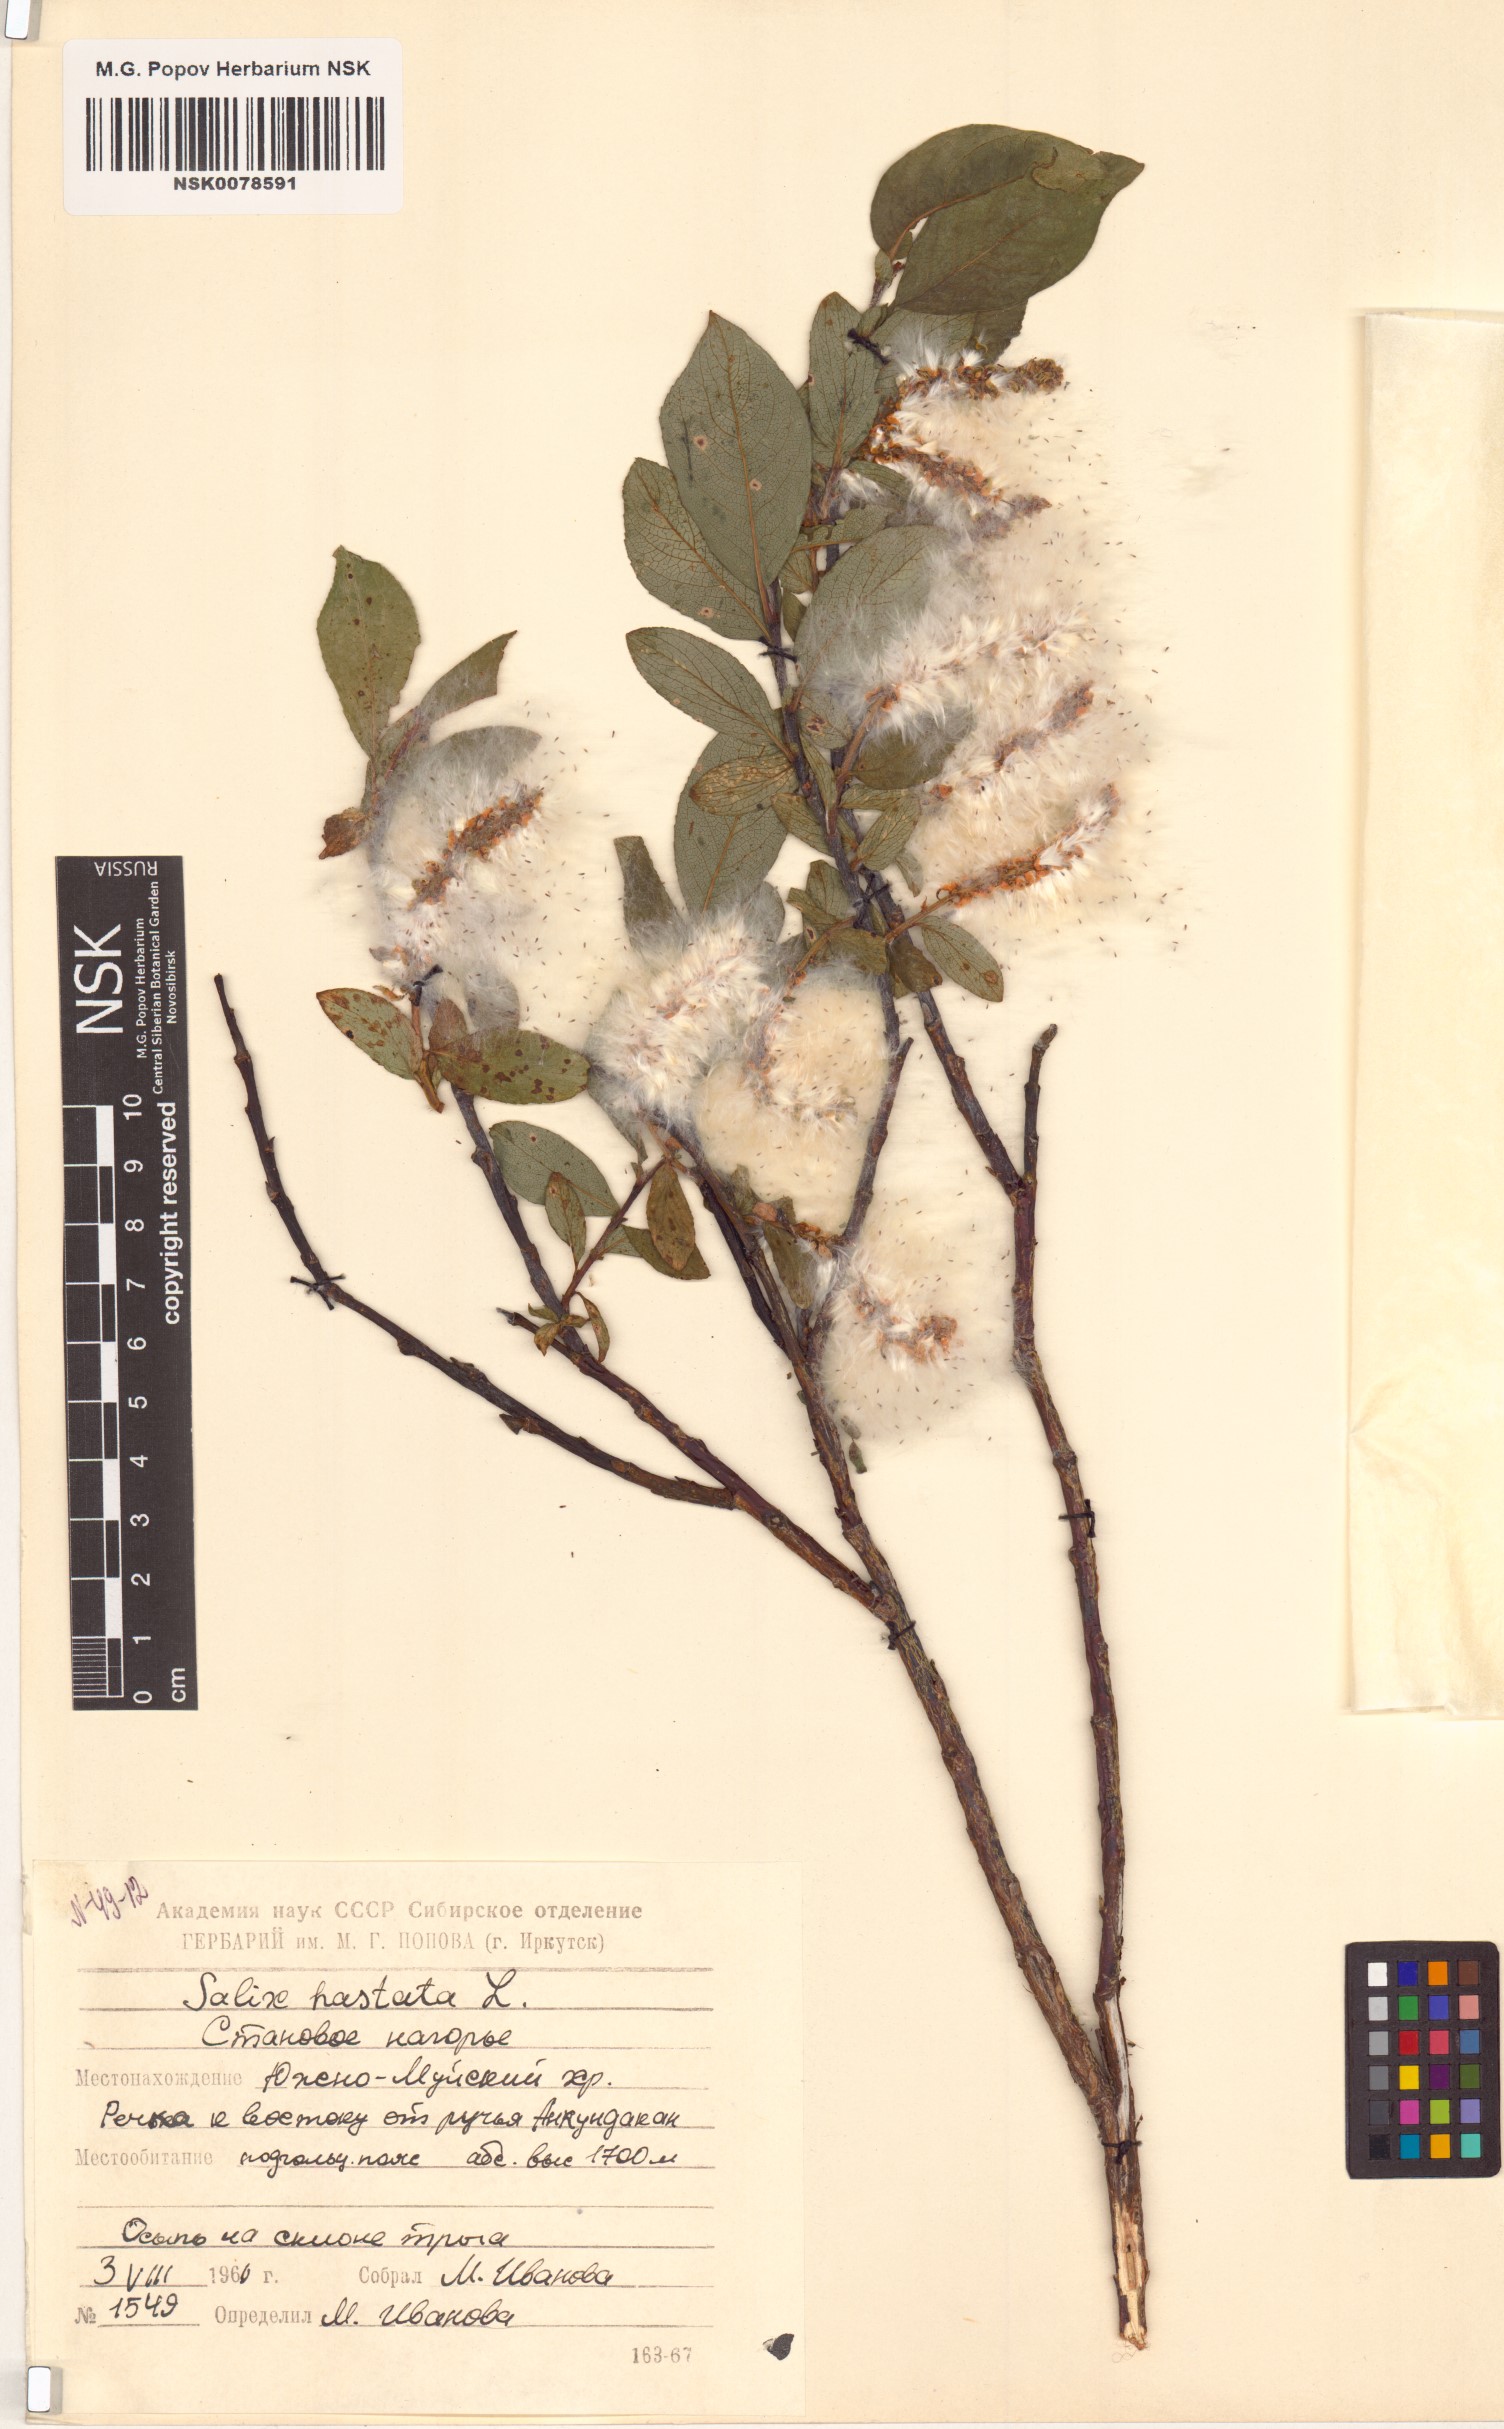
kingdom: Plantae
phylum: Tracheophyta
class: Magnoliopsida
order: Malpighiales
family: Salicaceae
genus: Salix
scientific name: Salix hastata
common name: Halberd willow
